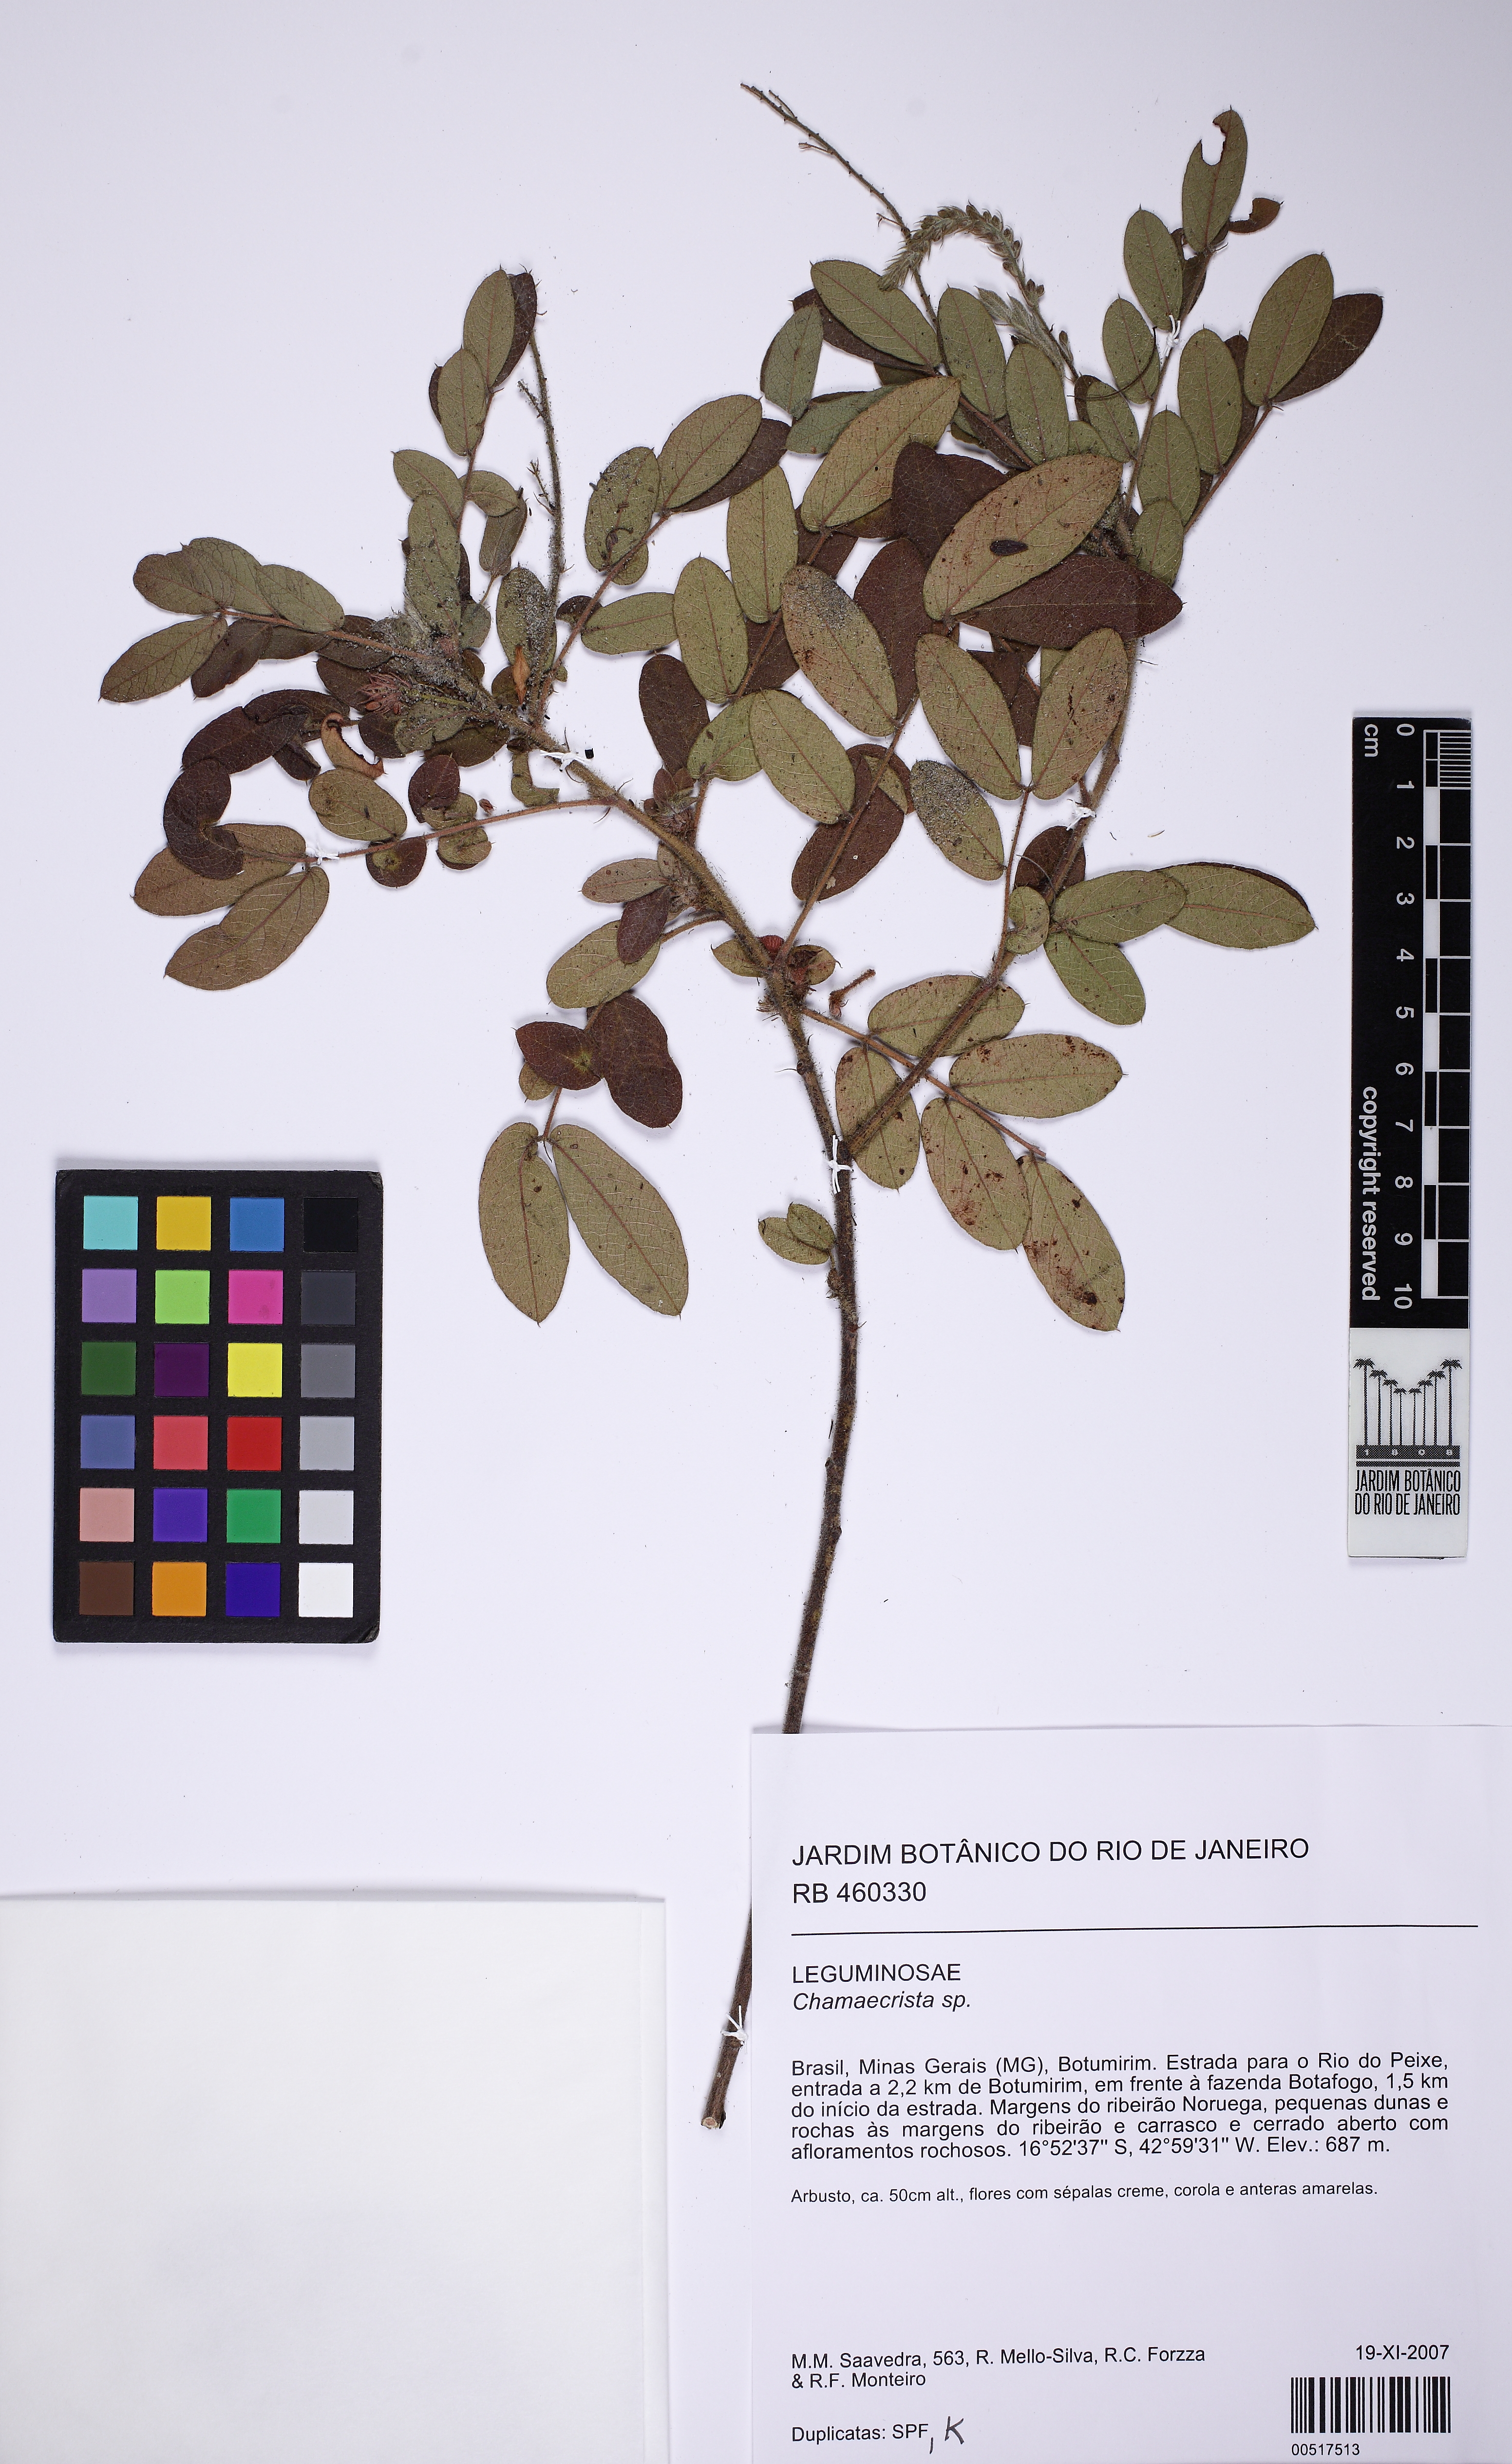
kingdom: Plantae
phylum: Tracheophyta
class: Magnoliopsida
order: Fabales
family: Fabaceae
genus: Chamaecrista
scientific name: Chamaecrista
